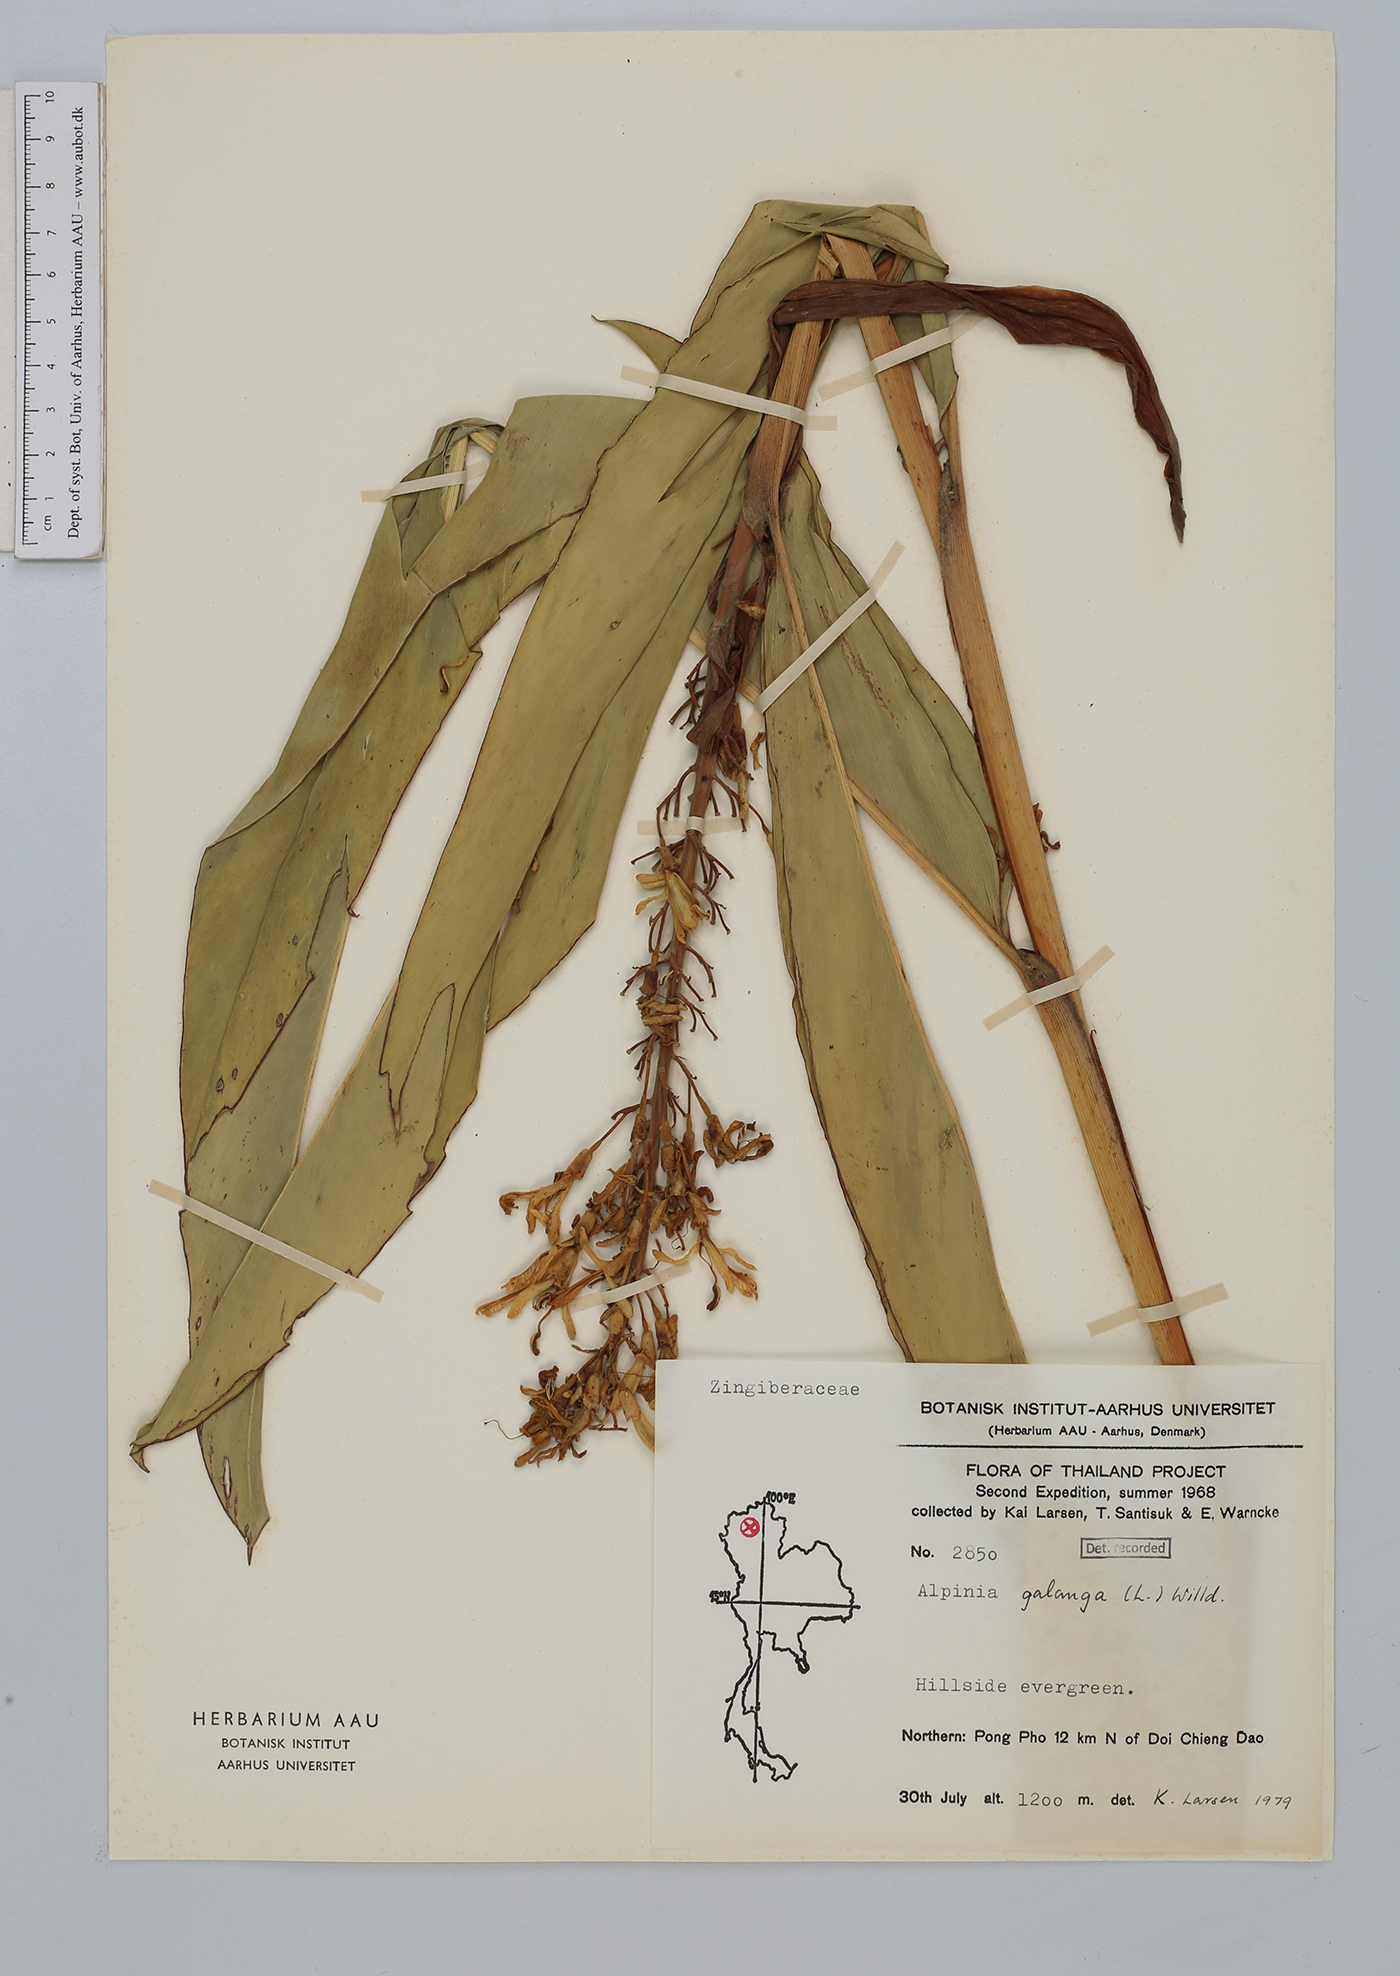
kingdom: Plantae
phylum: Tracheophyta
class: Liliopsida
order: Zingiberales
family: Zingiberaceae
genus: Alpinia
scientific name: Alpinia galanga
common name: Siamese-ginger
